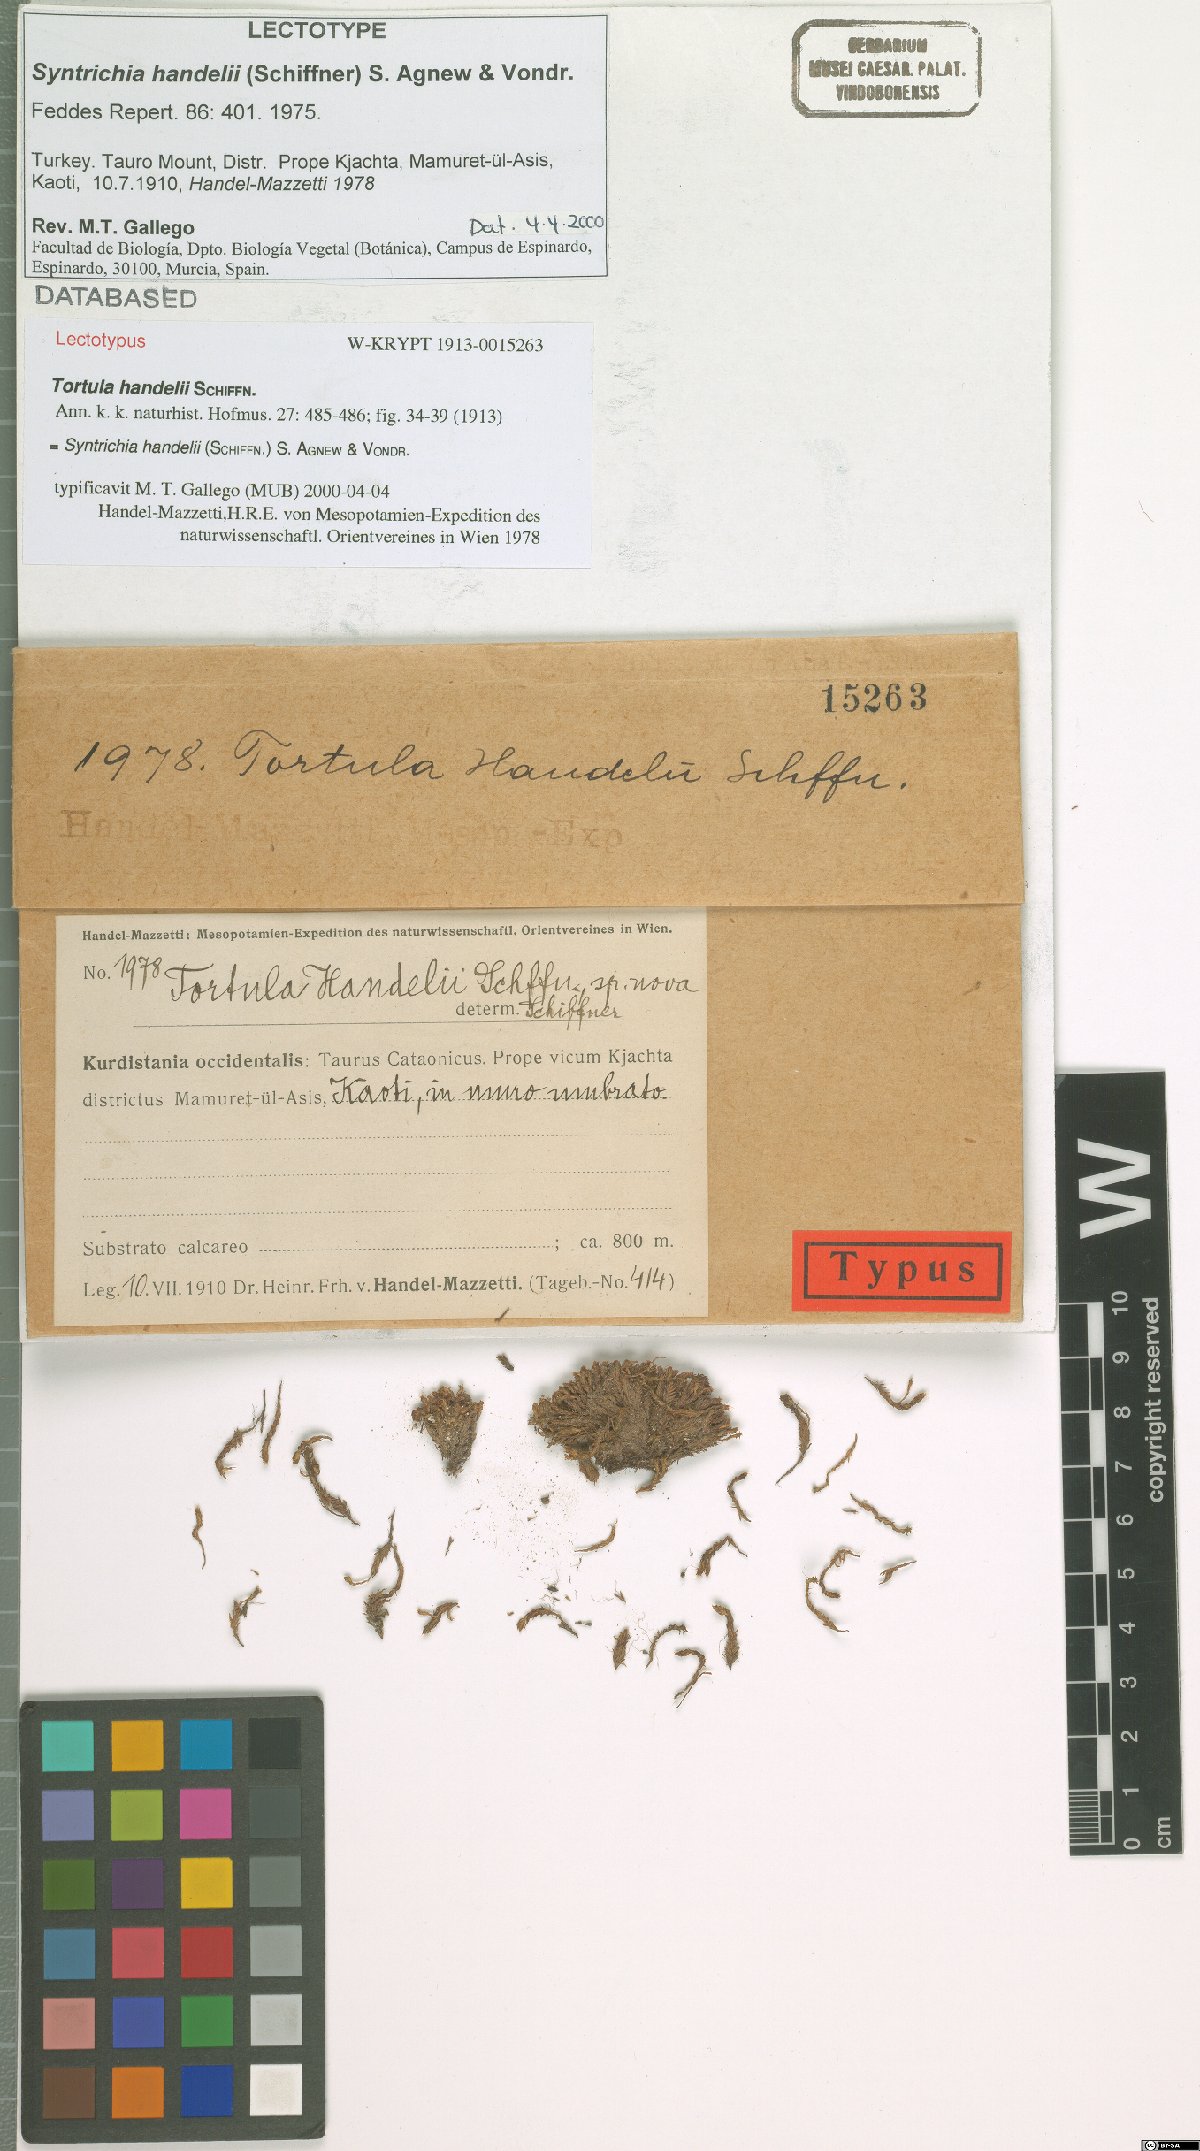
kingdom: Plantae
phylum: Bryophyta
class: Bryopsida
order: Pottiales
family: Pottiaceae
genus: Syntrichia
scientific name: Syntrichia handelii
